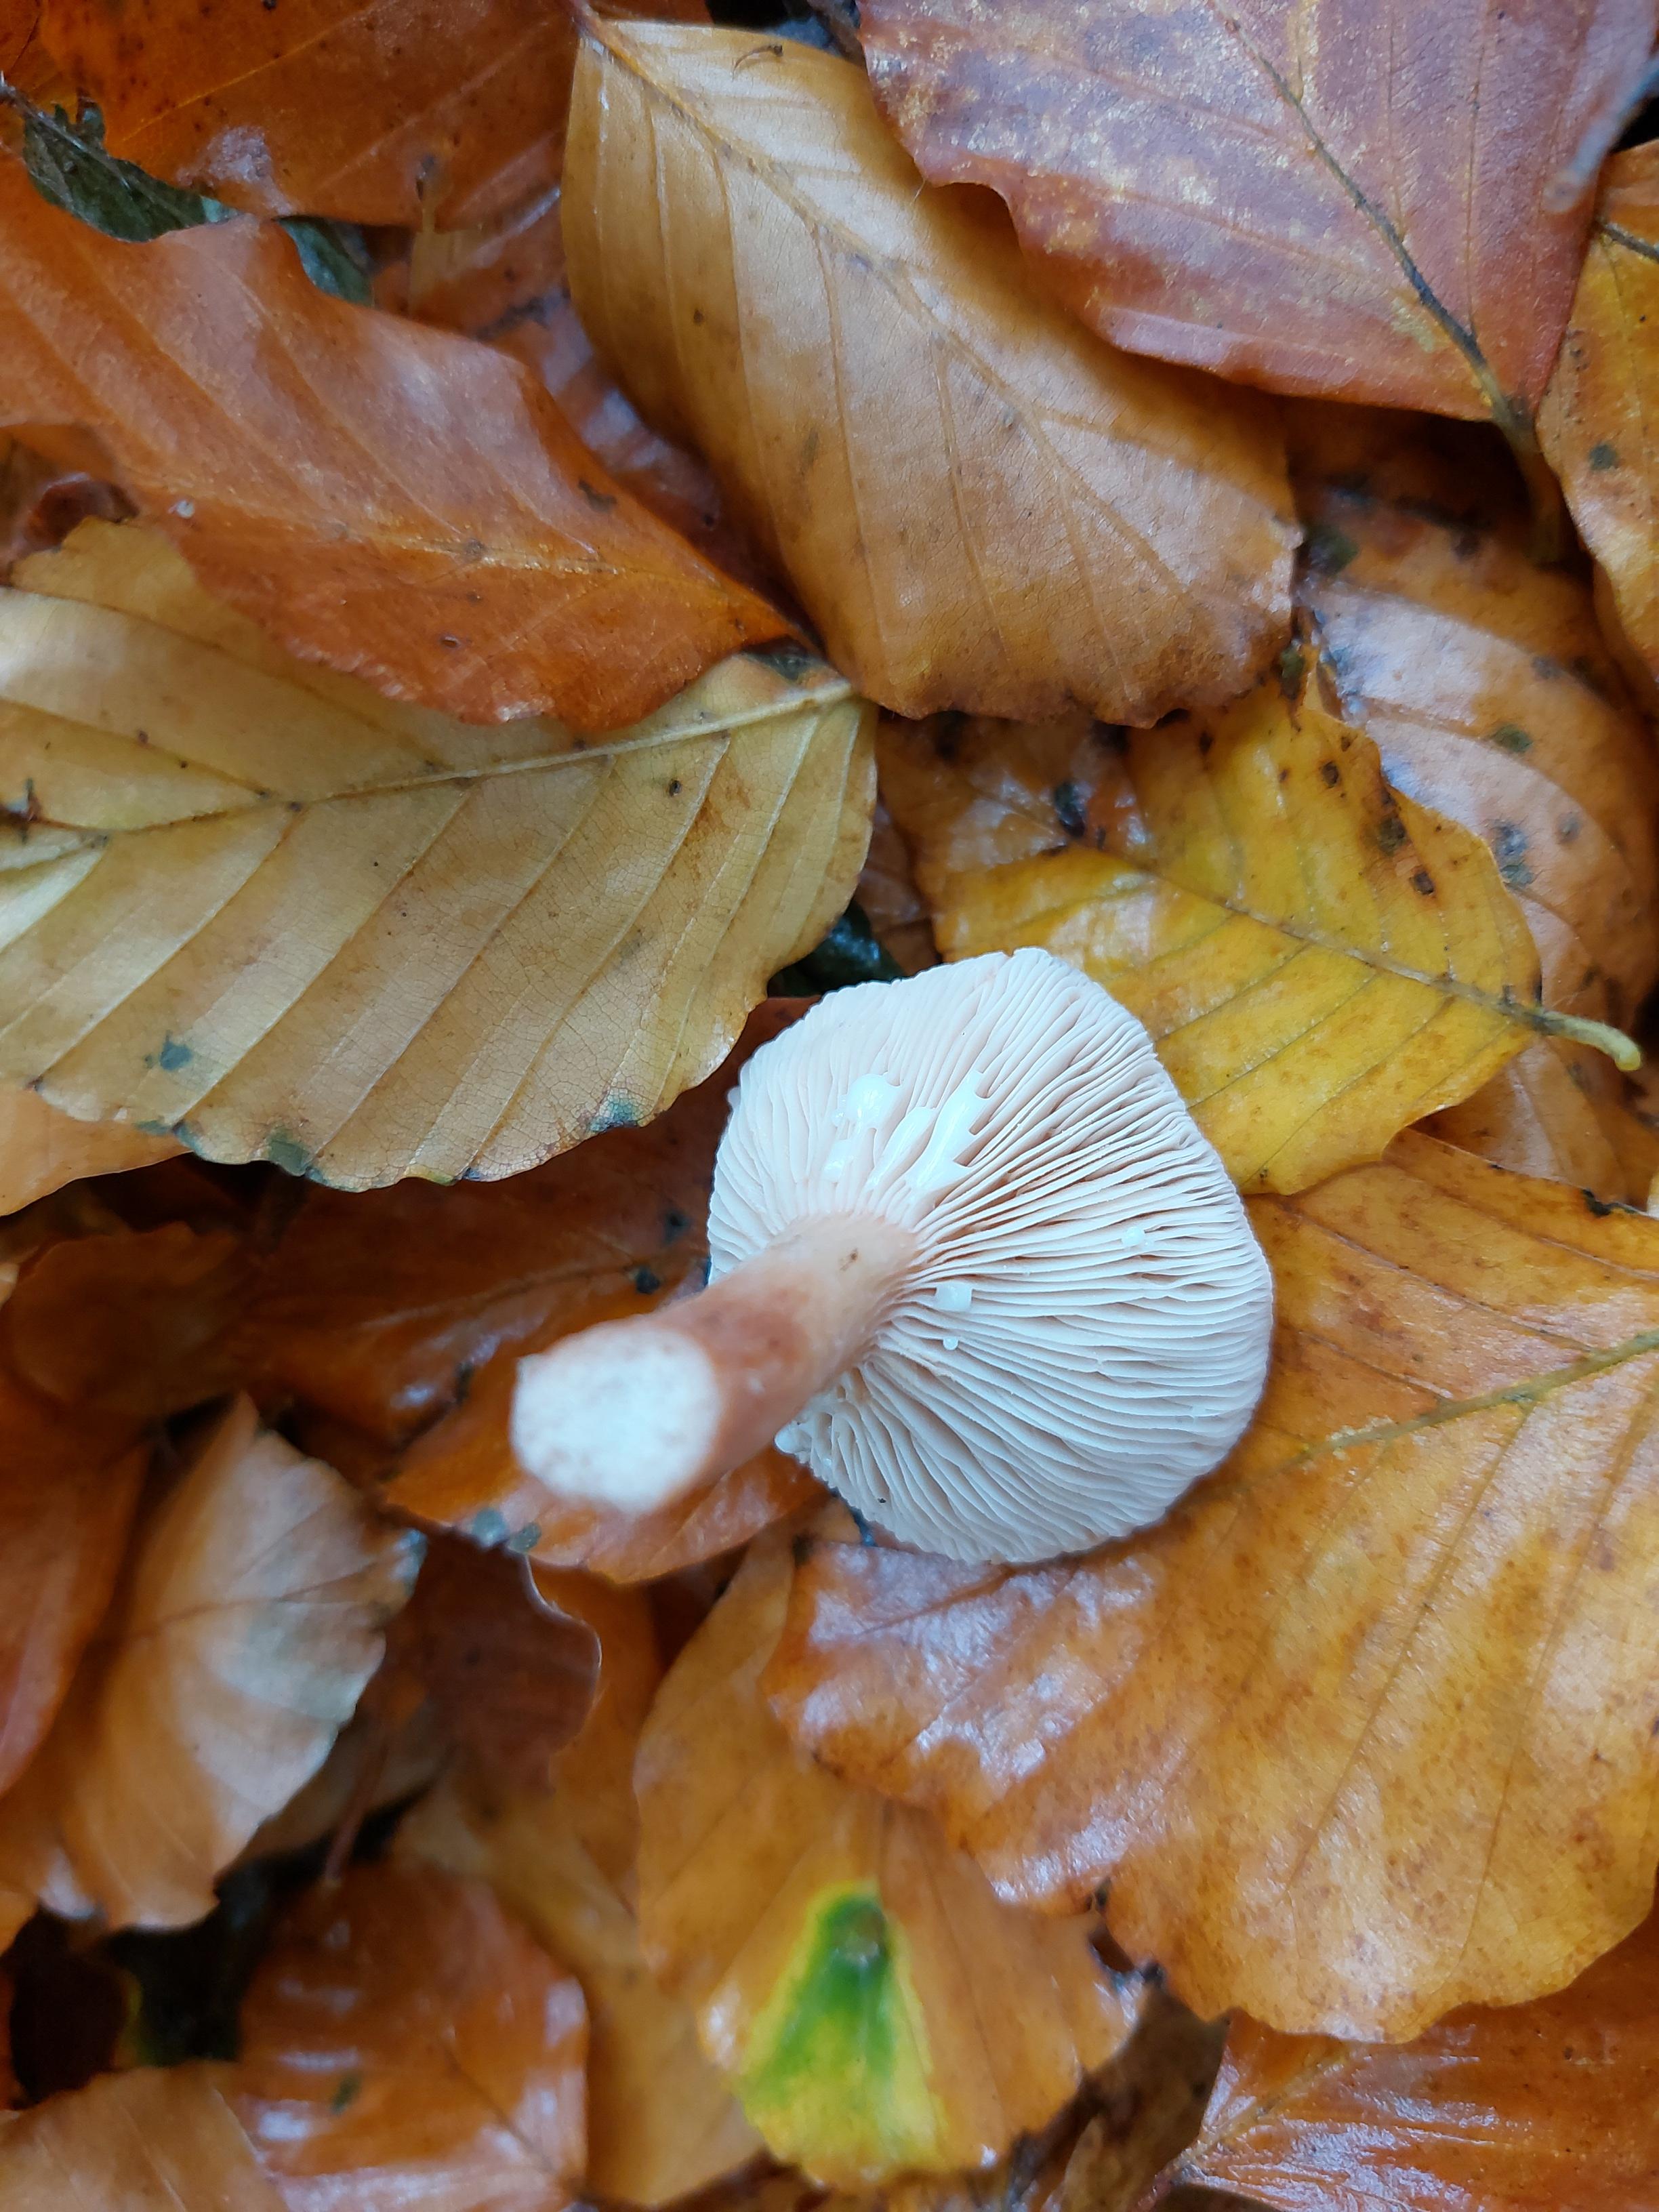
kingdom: Fungi
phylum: Basidiomycota
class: Agaricomycetes
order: Russulales
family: Russulaceae
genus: Lactarius
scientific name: Lactarius subdulcis
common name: sødlig mælkehat
